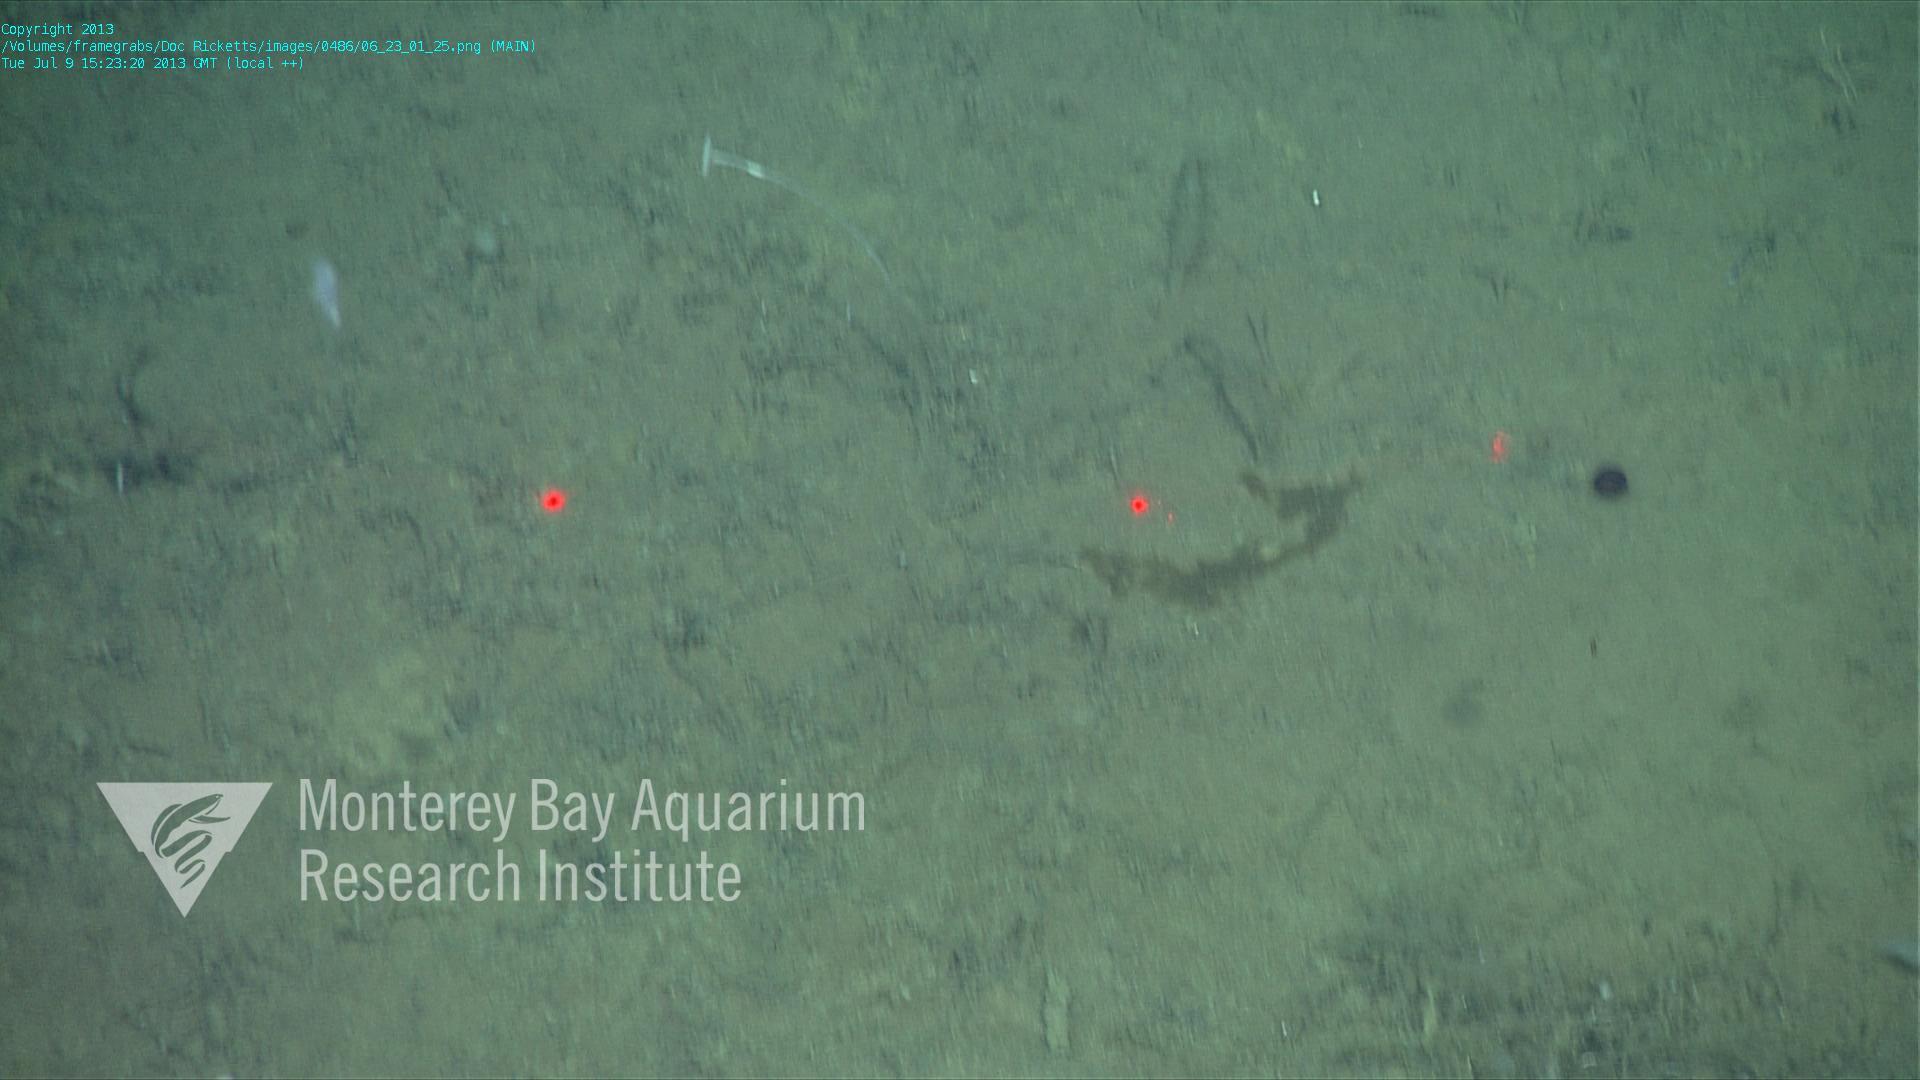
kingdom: Animalia
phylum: Porifera
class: Demospongiae
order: Poecilosclerida
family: Cladorhizidae
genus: Cladorhiza
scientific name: Cladorhiza
